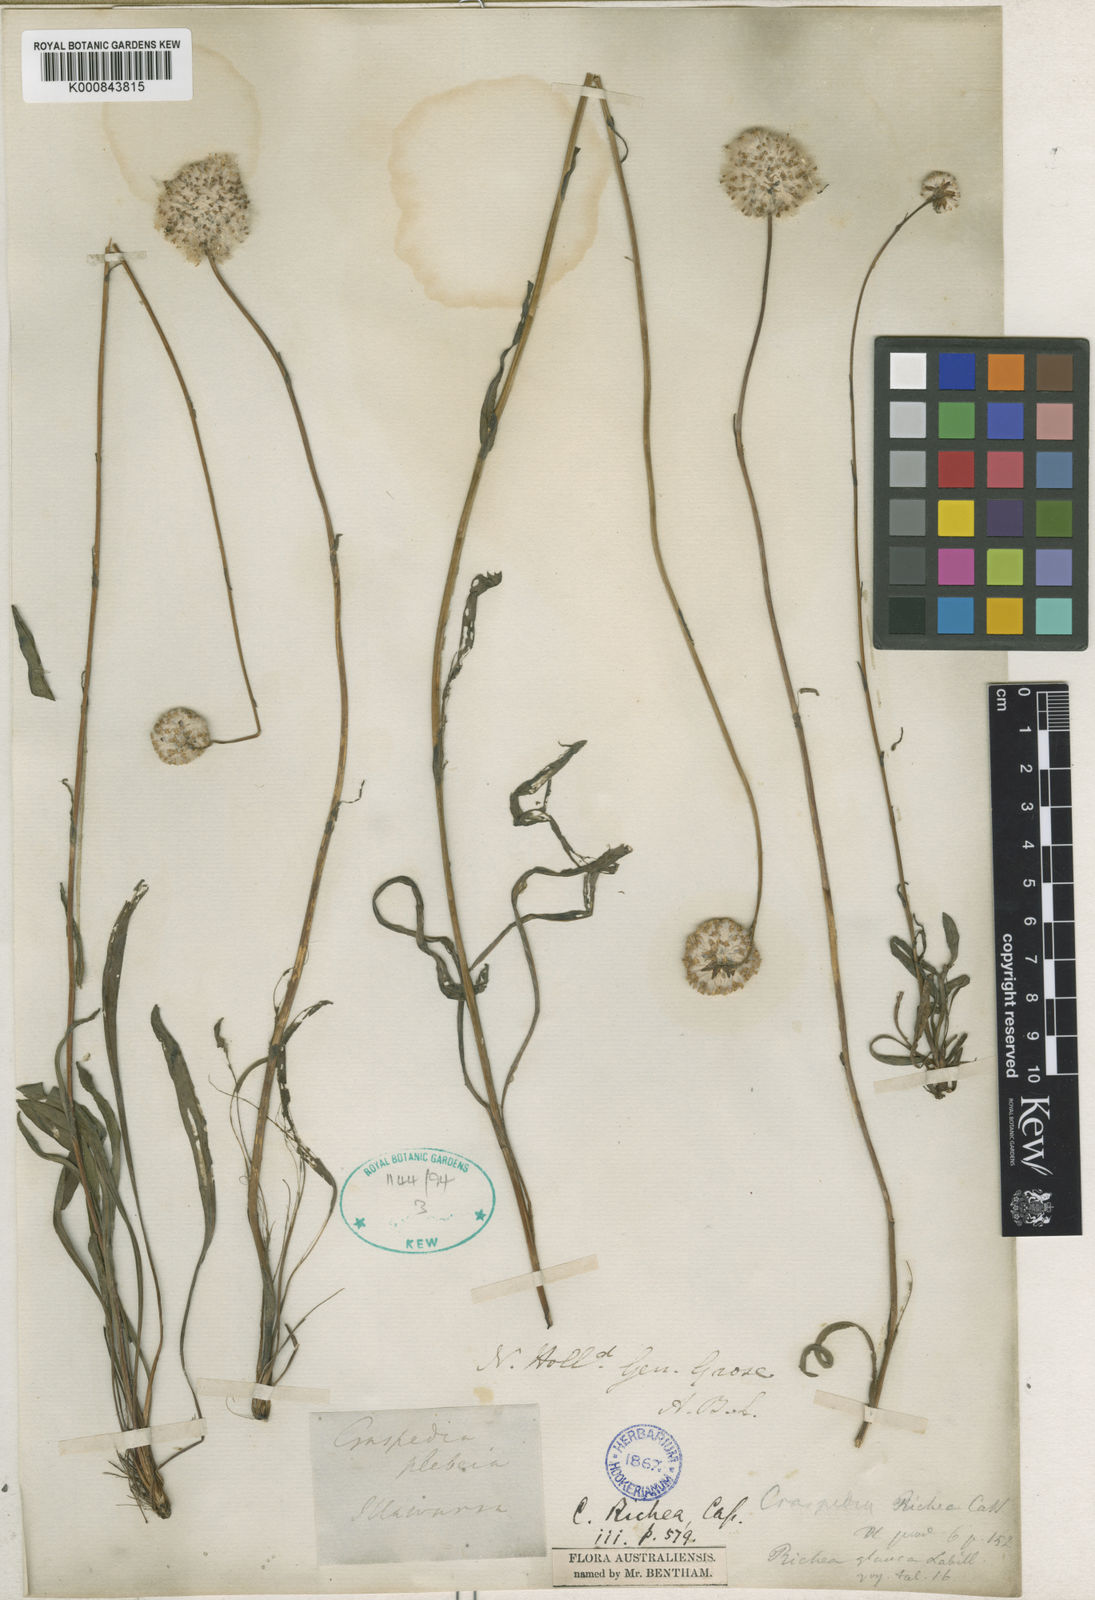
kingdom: Plantae
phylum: Tracheophyta
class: Magnoliopsida
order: Asterales
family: Asteraceae
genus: Craspedia
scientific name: Craspedia
